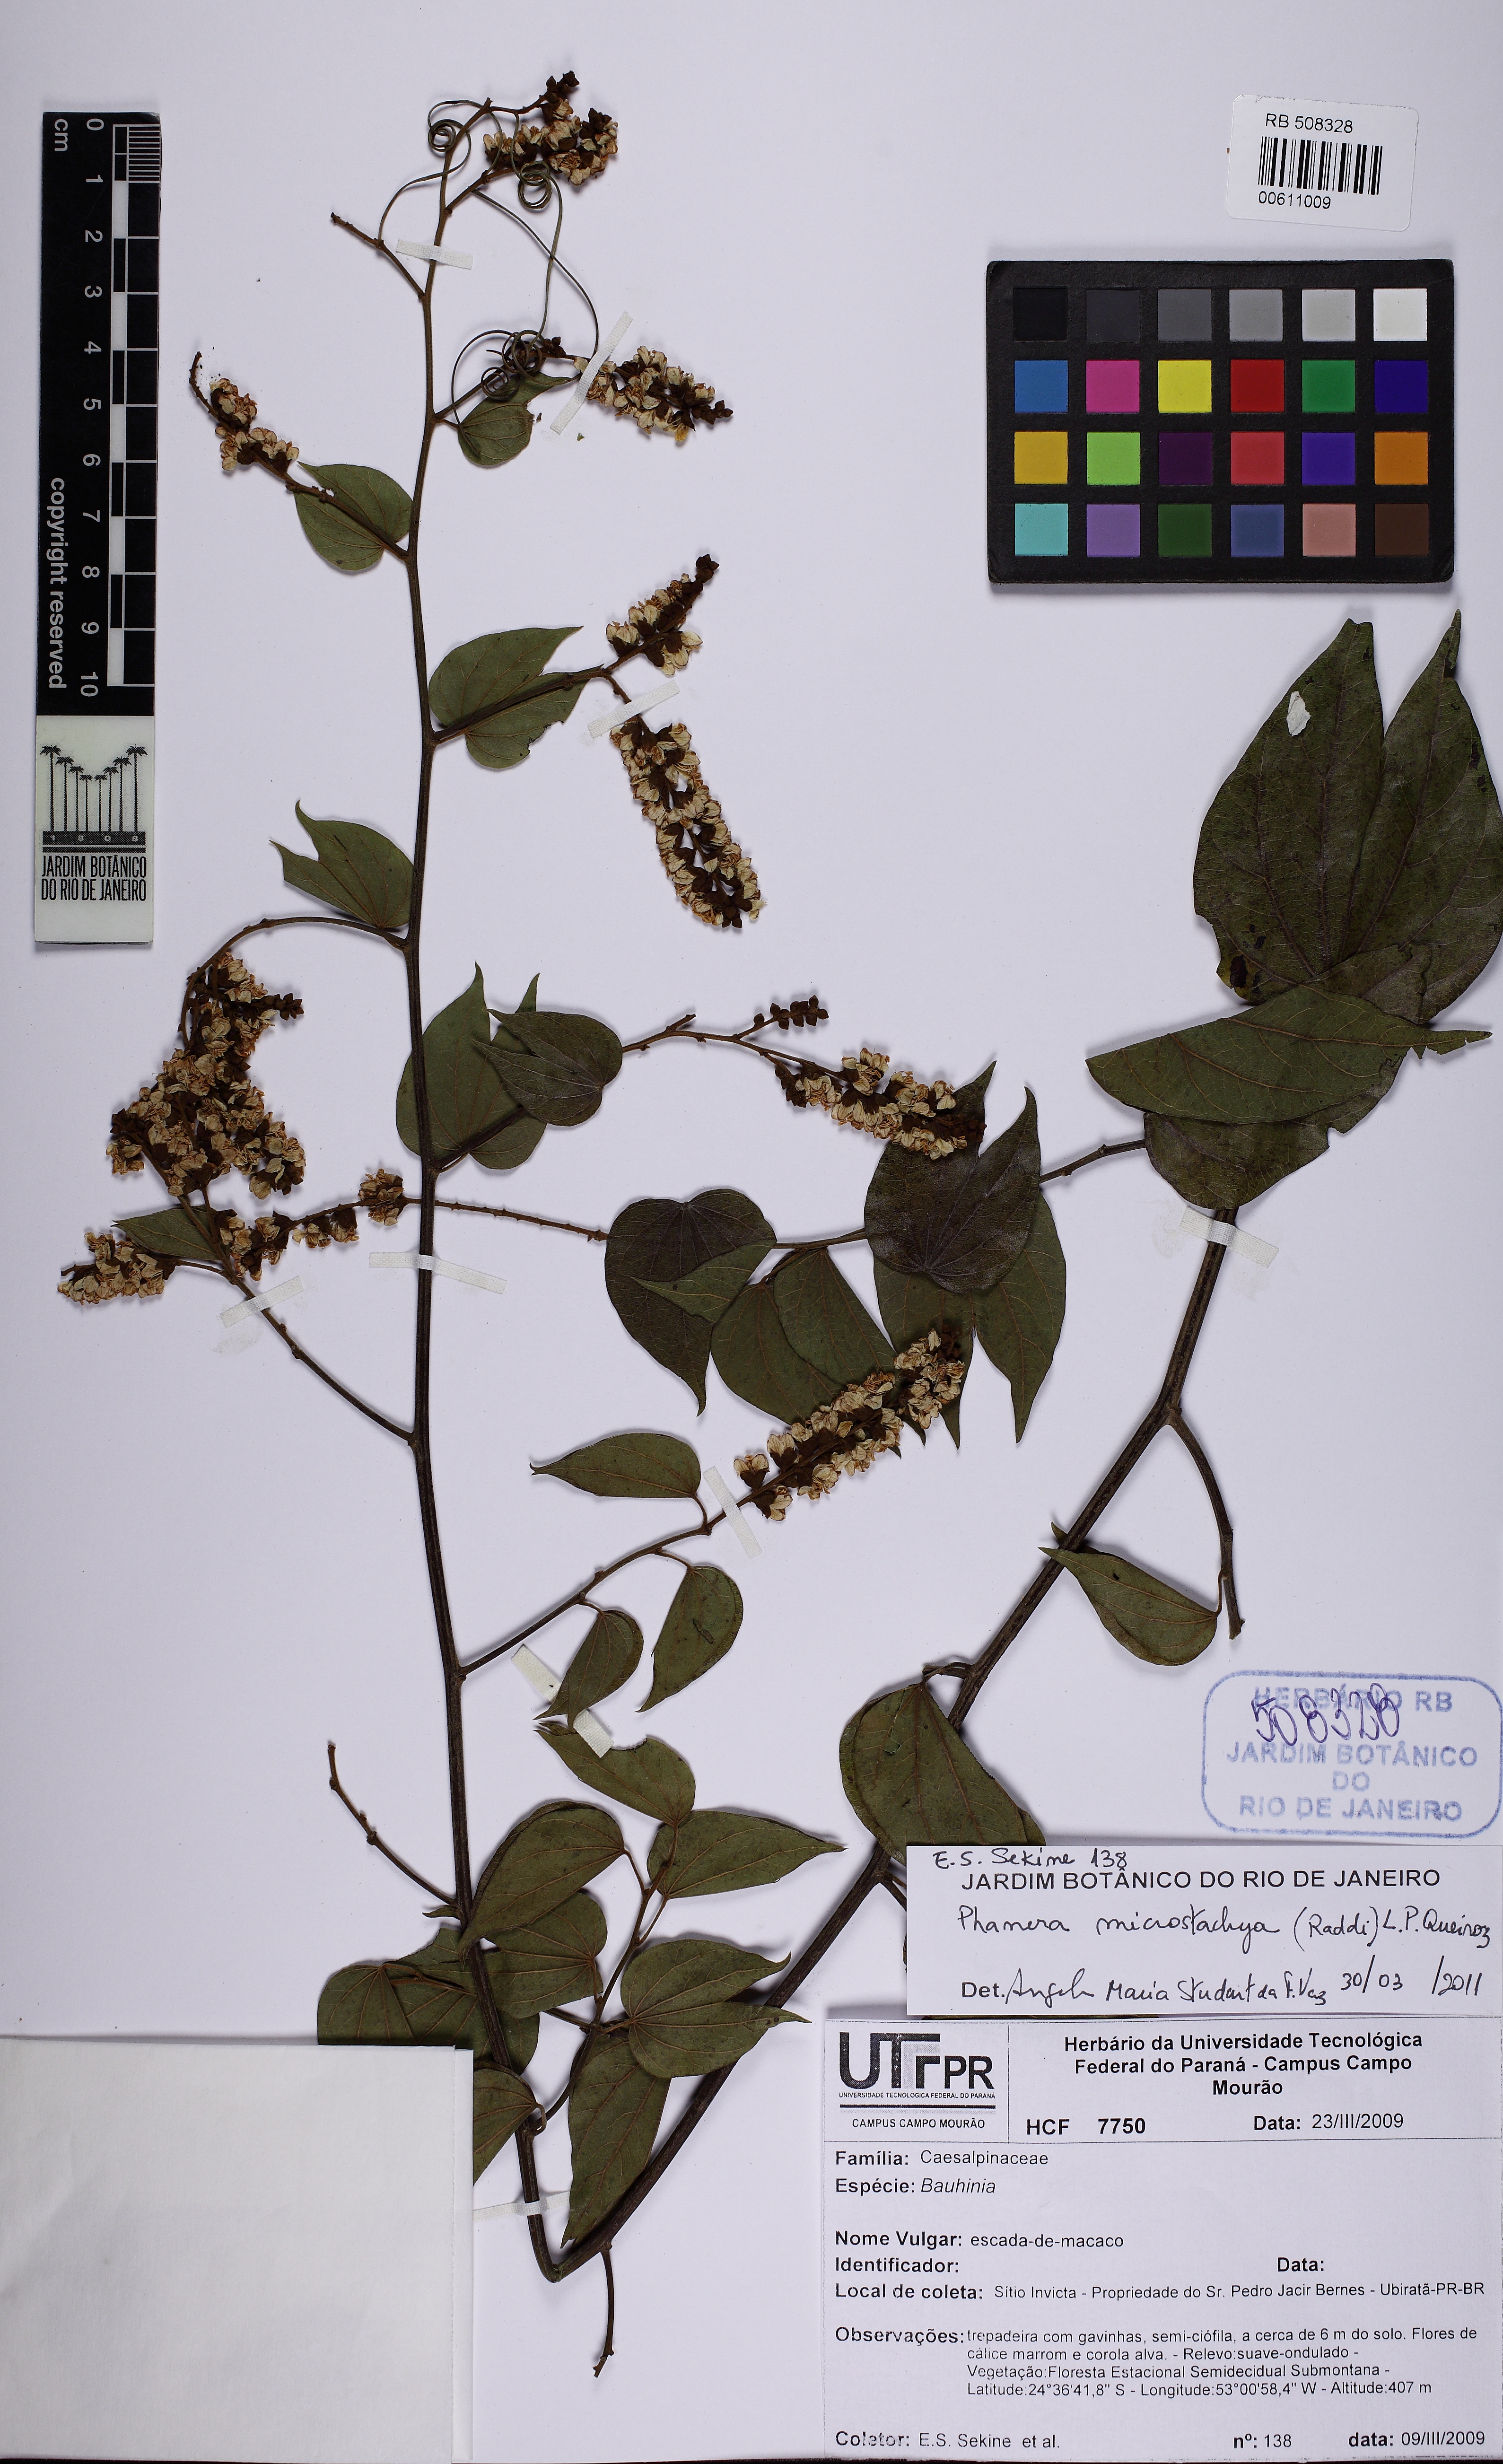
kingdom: Plantae
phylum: Tracheophyta
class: Magnoliopsida
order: Fabales
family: Fabaceae
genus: Schnella
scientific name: Schnella microstachya
